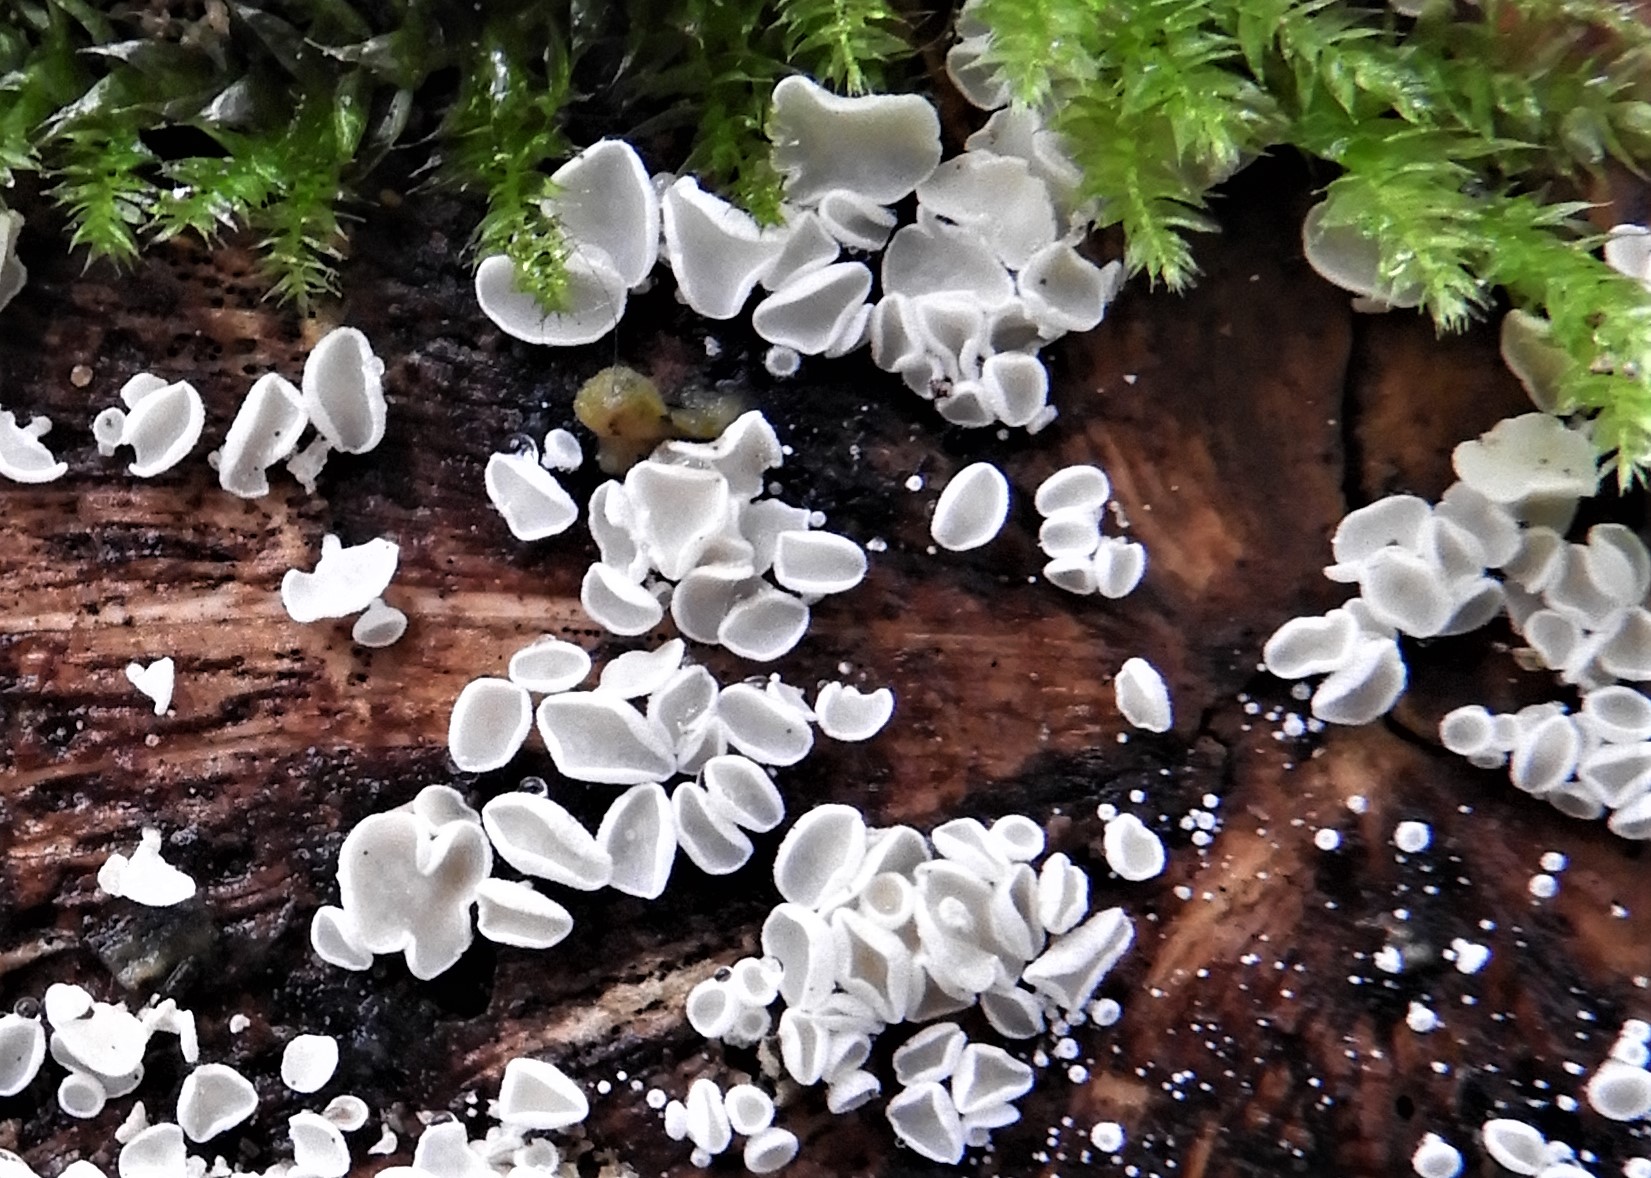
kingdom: Fungi
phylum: Ascomycota
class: Leotiomycetes
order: Helotiales
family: Lachnaceae
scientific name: Lachnaceae
